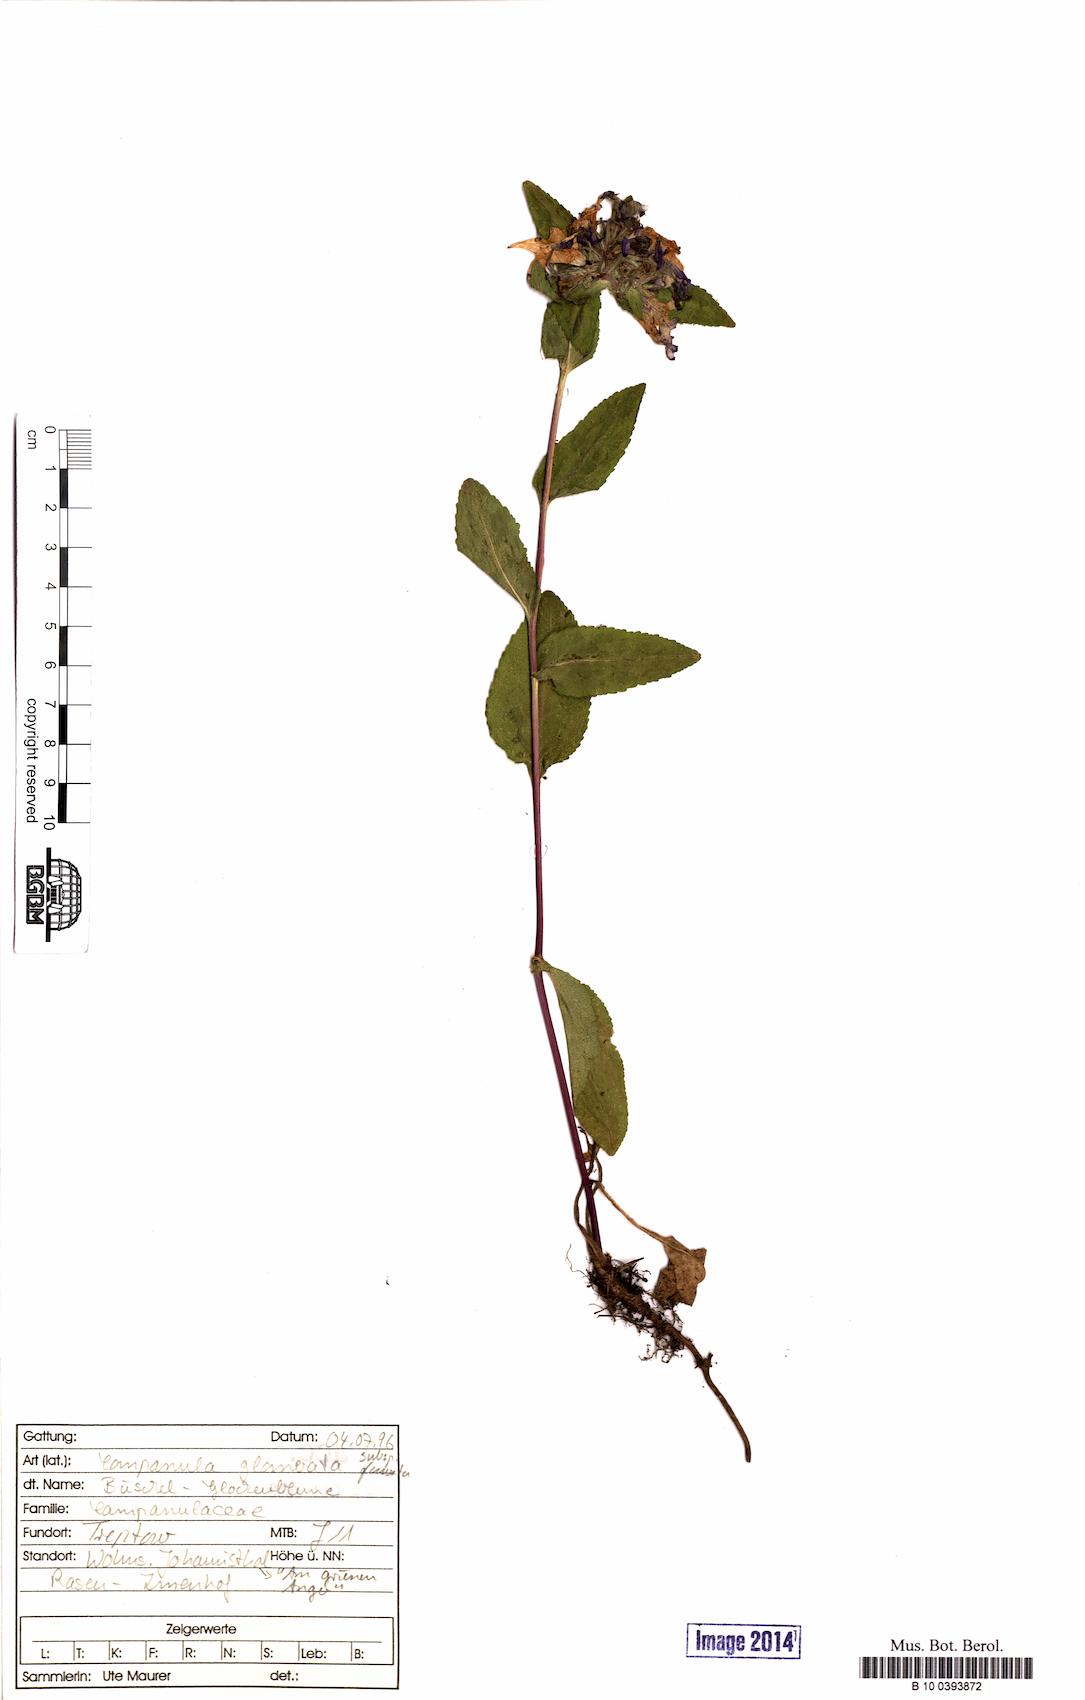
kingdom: Plantae
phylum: Tracheophyta
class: Magnoliopsida
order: Asterales
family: Campanulaceae
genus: Campanula
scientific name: Campanula glomerata
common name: Clustered bellflower
